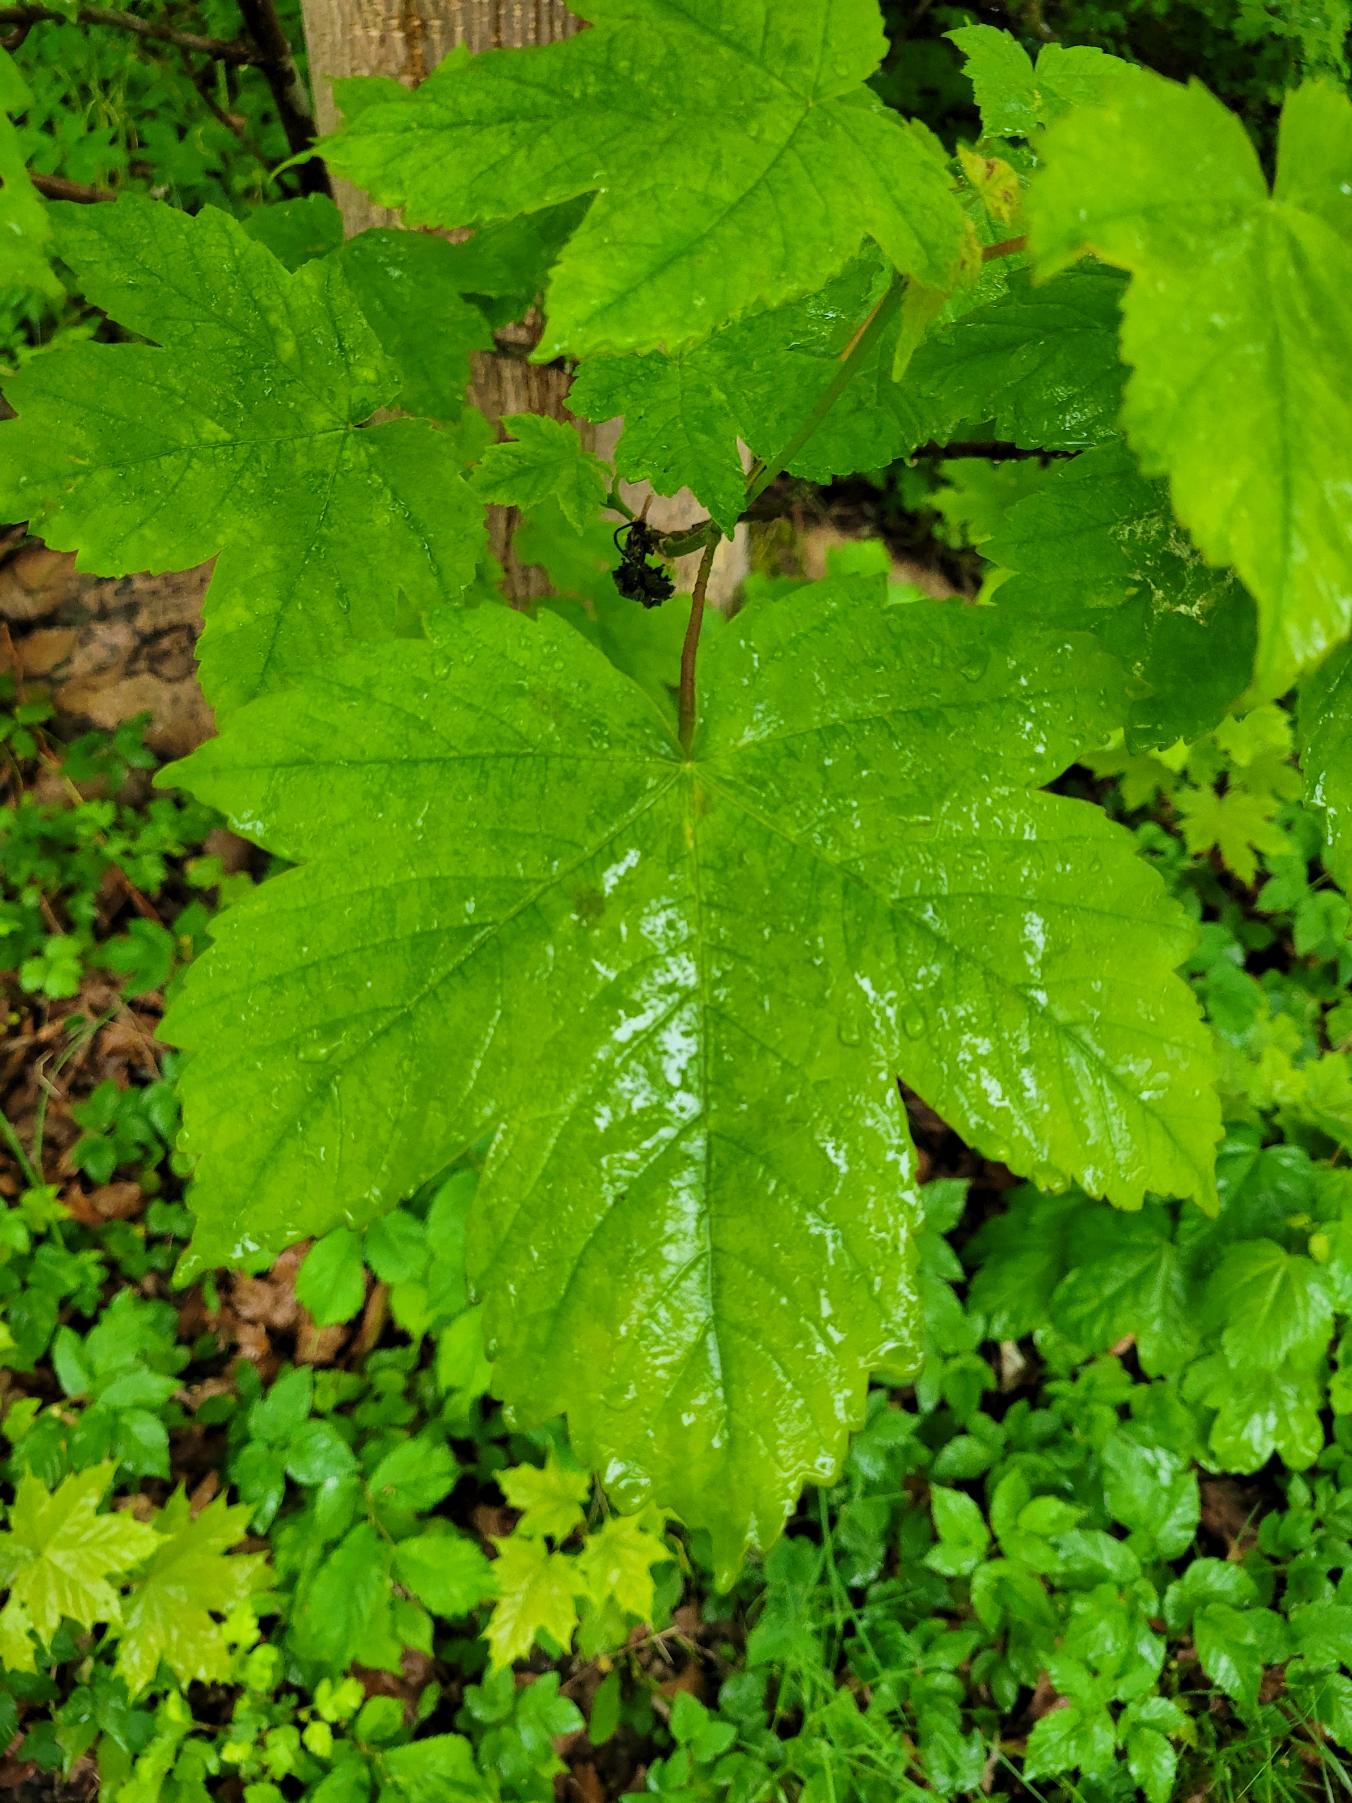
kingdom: Plantae
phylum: Tracheophyta
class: Magnoliopsida
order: Sapindales
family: Sapindaceae
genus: Acer
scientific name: Acer pseudoplatanus
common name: Ahorn
